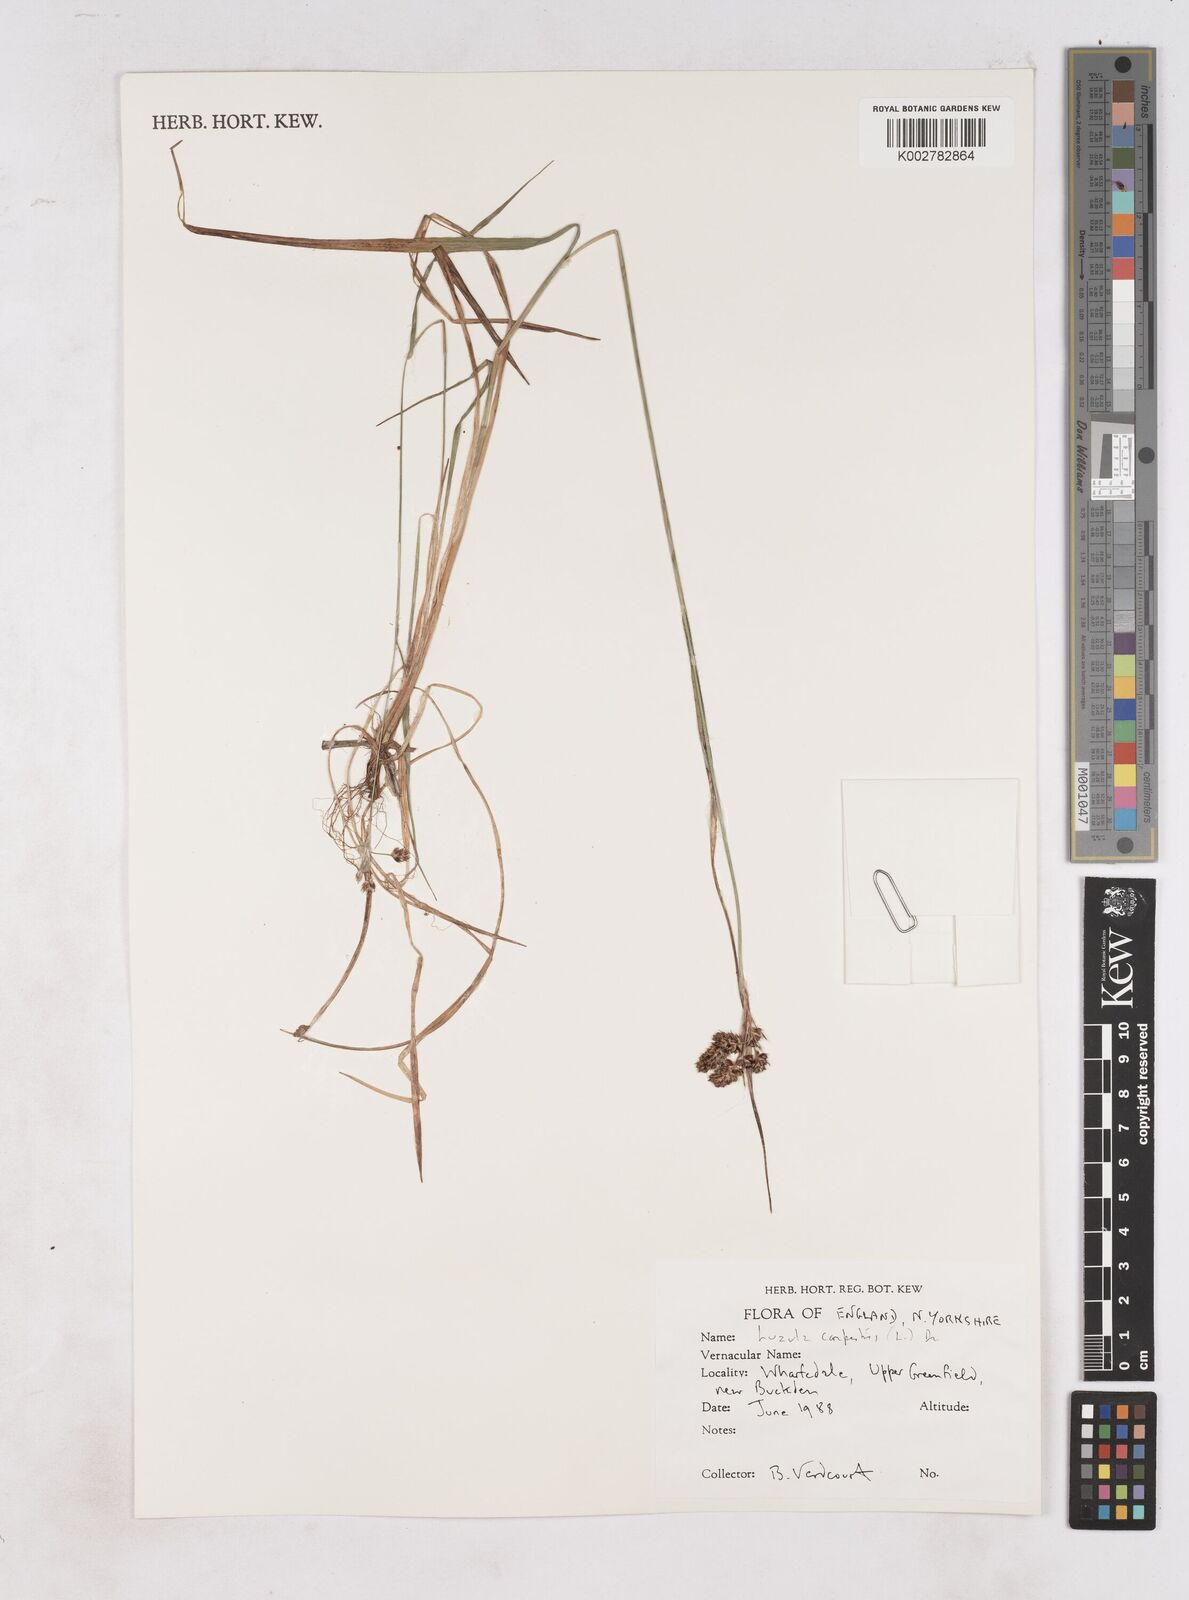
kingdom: Plantae
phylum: Tracheophyta
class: Liliopsida
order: Poales
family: Juncaceae
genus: Luzula
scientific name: Luzula campestris
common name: Field wood-rush
